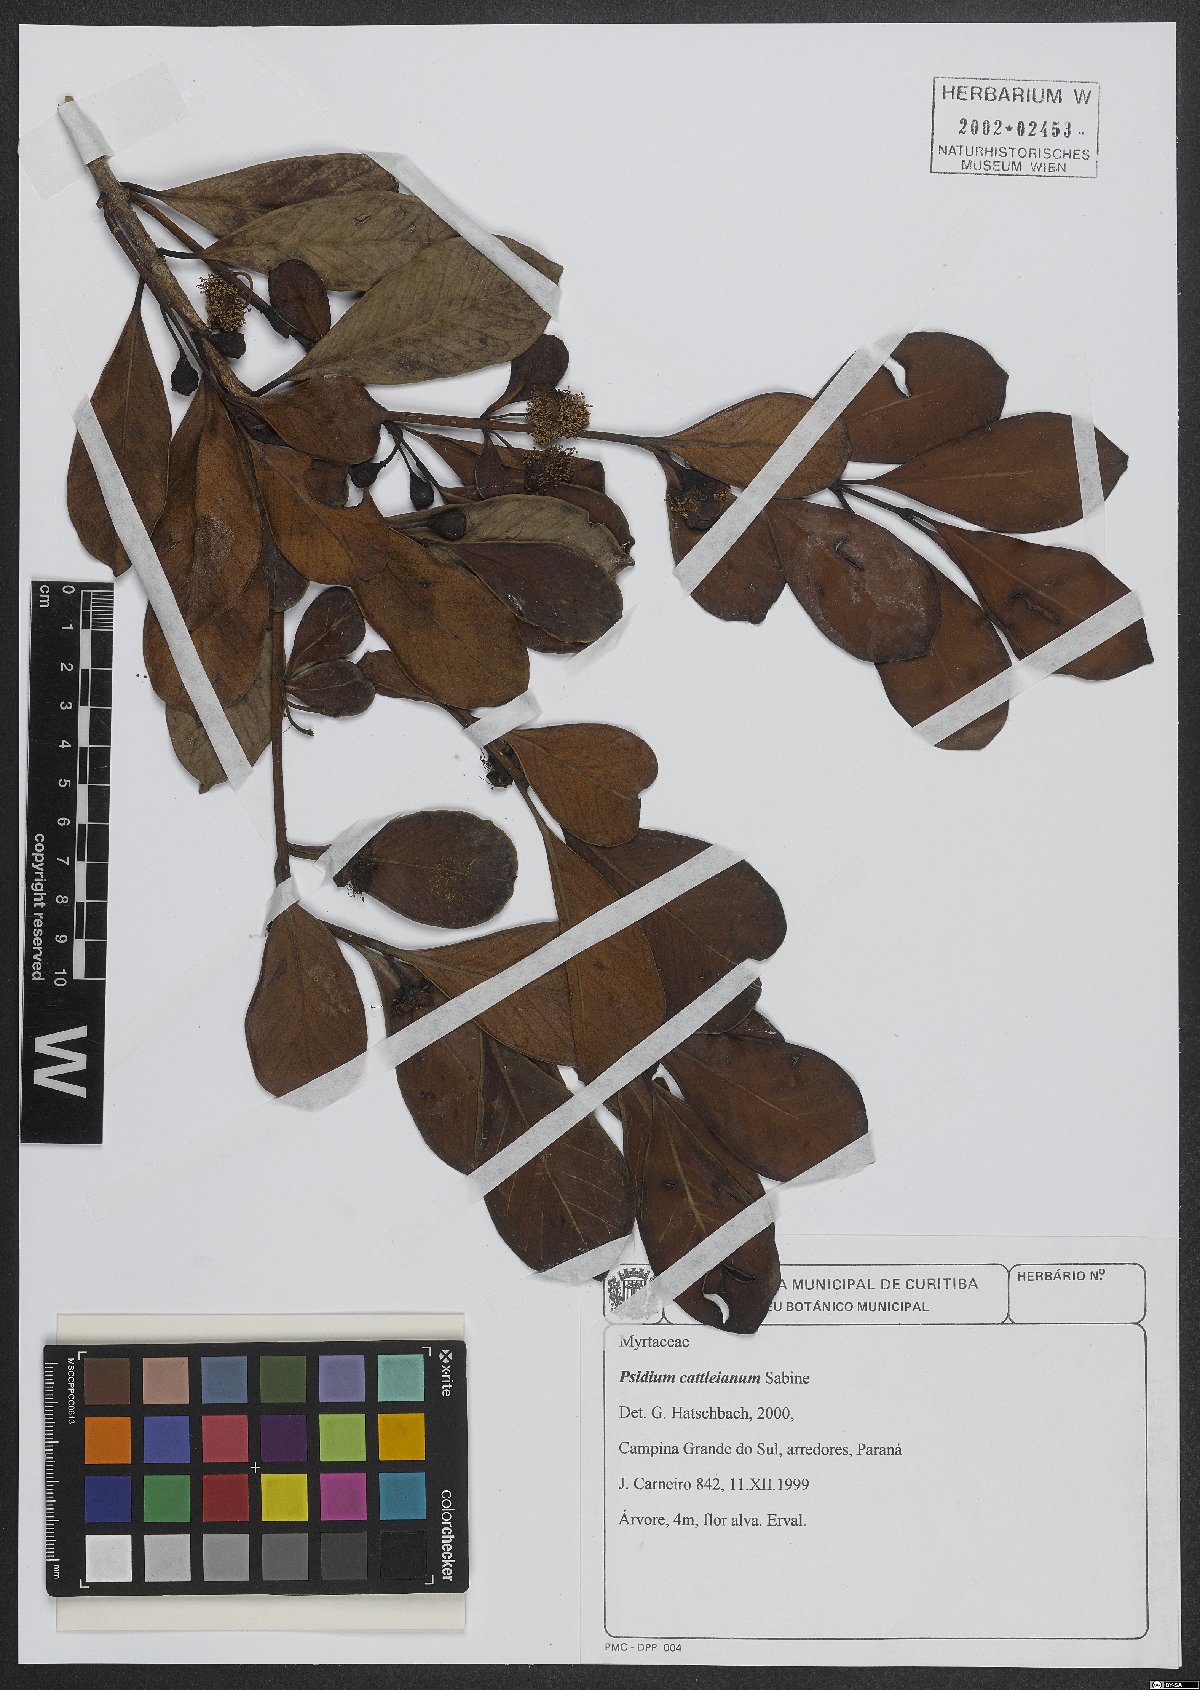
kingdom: Plantae
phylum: Tracheophyta
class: Magnoliopsida
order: Myrtales
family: Myrtaceae
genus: Psidium
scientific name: Psidium cattleianum
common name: Strawberry guava
